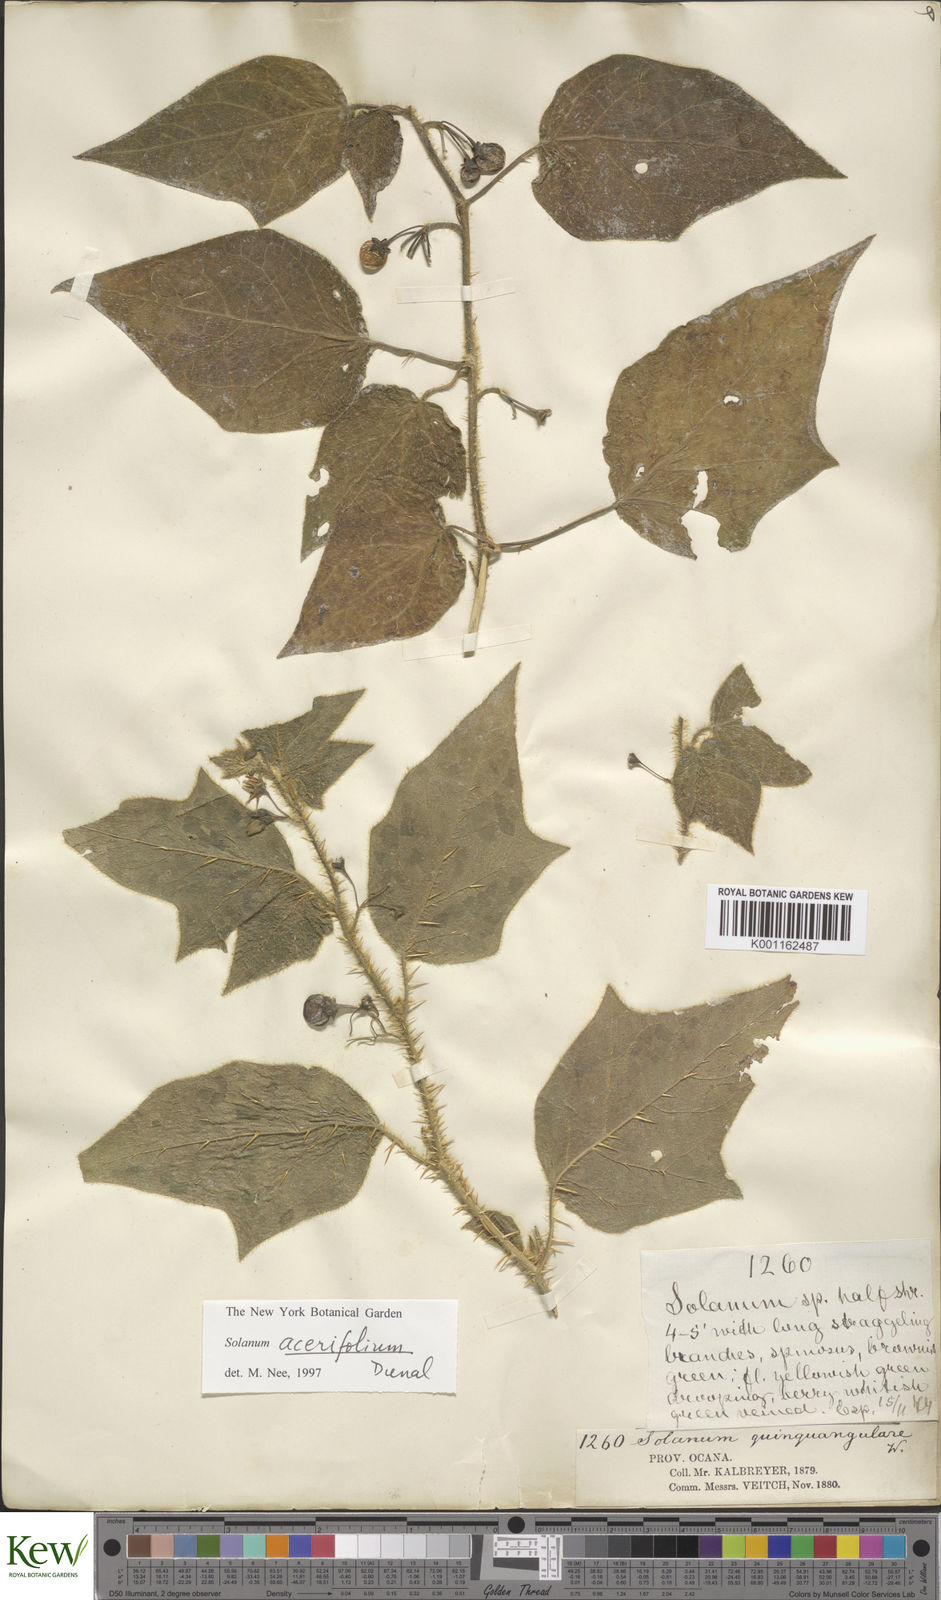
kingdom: Plantae
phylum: Tracheophyta
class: Magnoliopsida
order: Solanales
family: Solanaceae
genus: Solanum
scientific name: Solanum acerifolium
